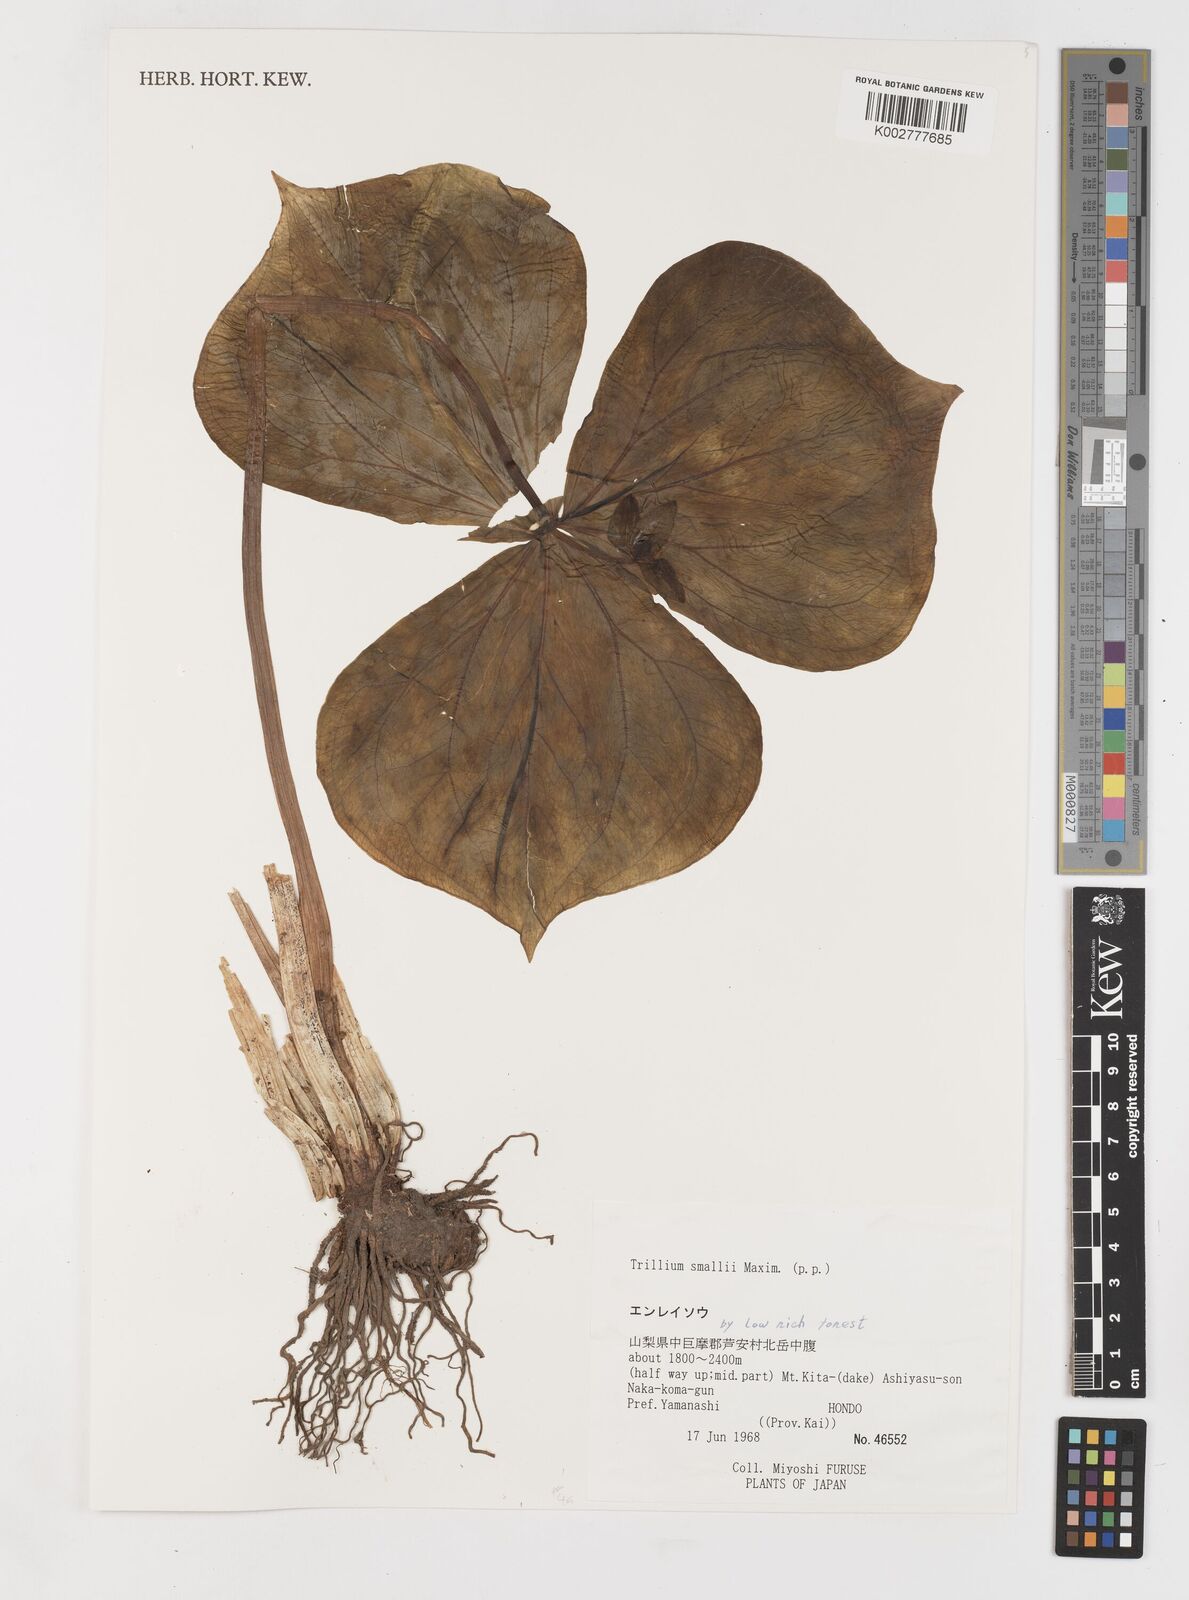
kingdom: Plantae
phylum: Tracheophyta
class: Liliopsida
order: Liliales
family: Melanthiaceae
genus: Trillium
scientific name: Trillium smallii
